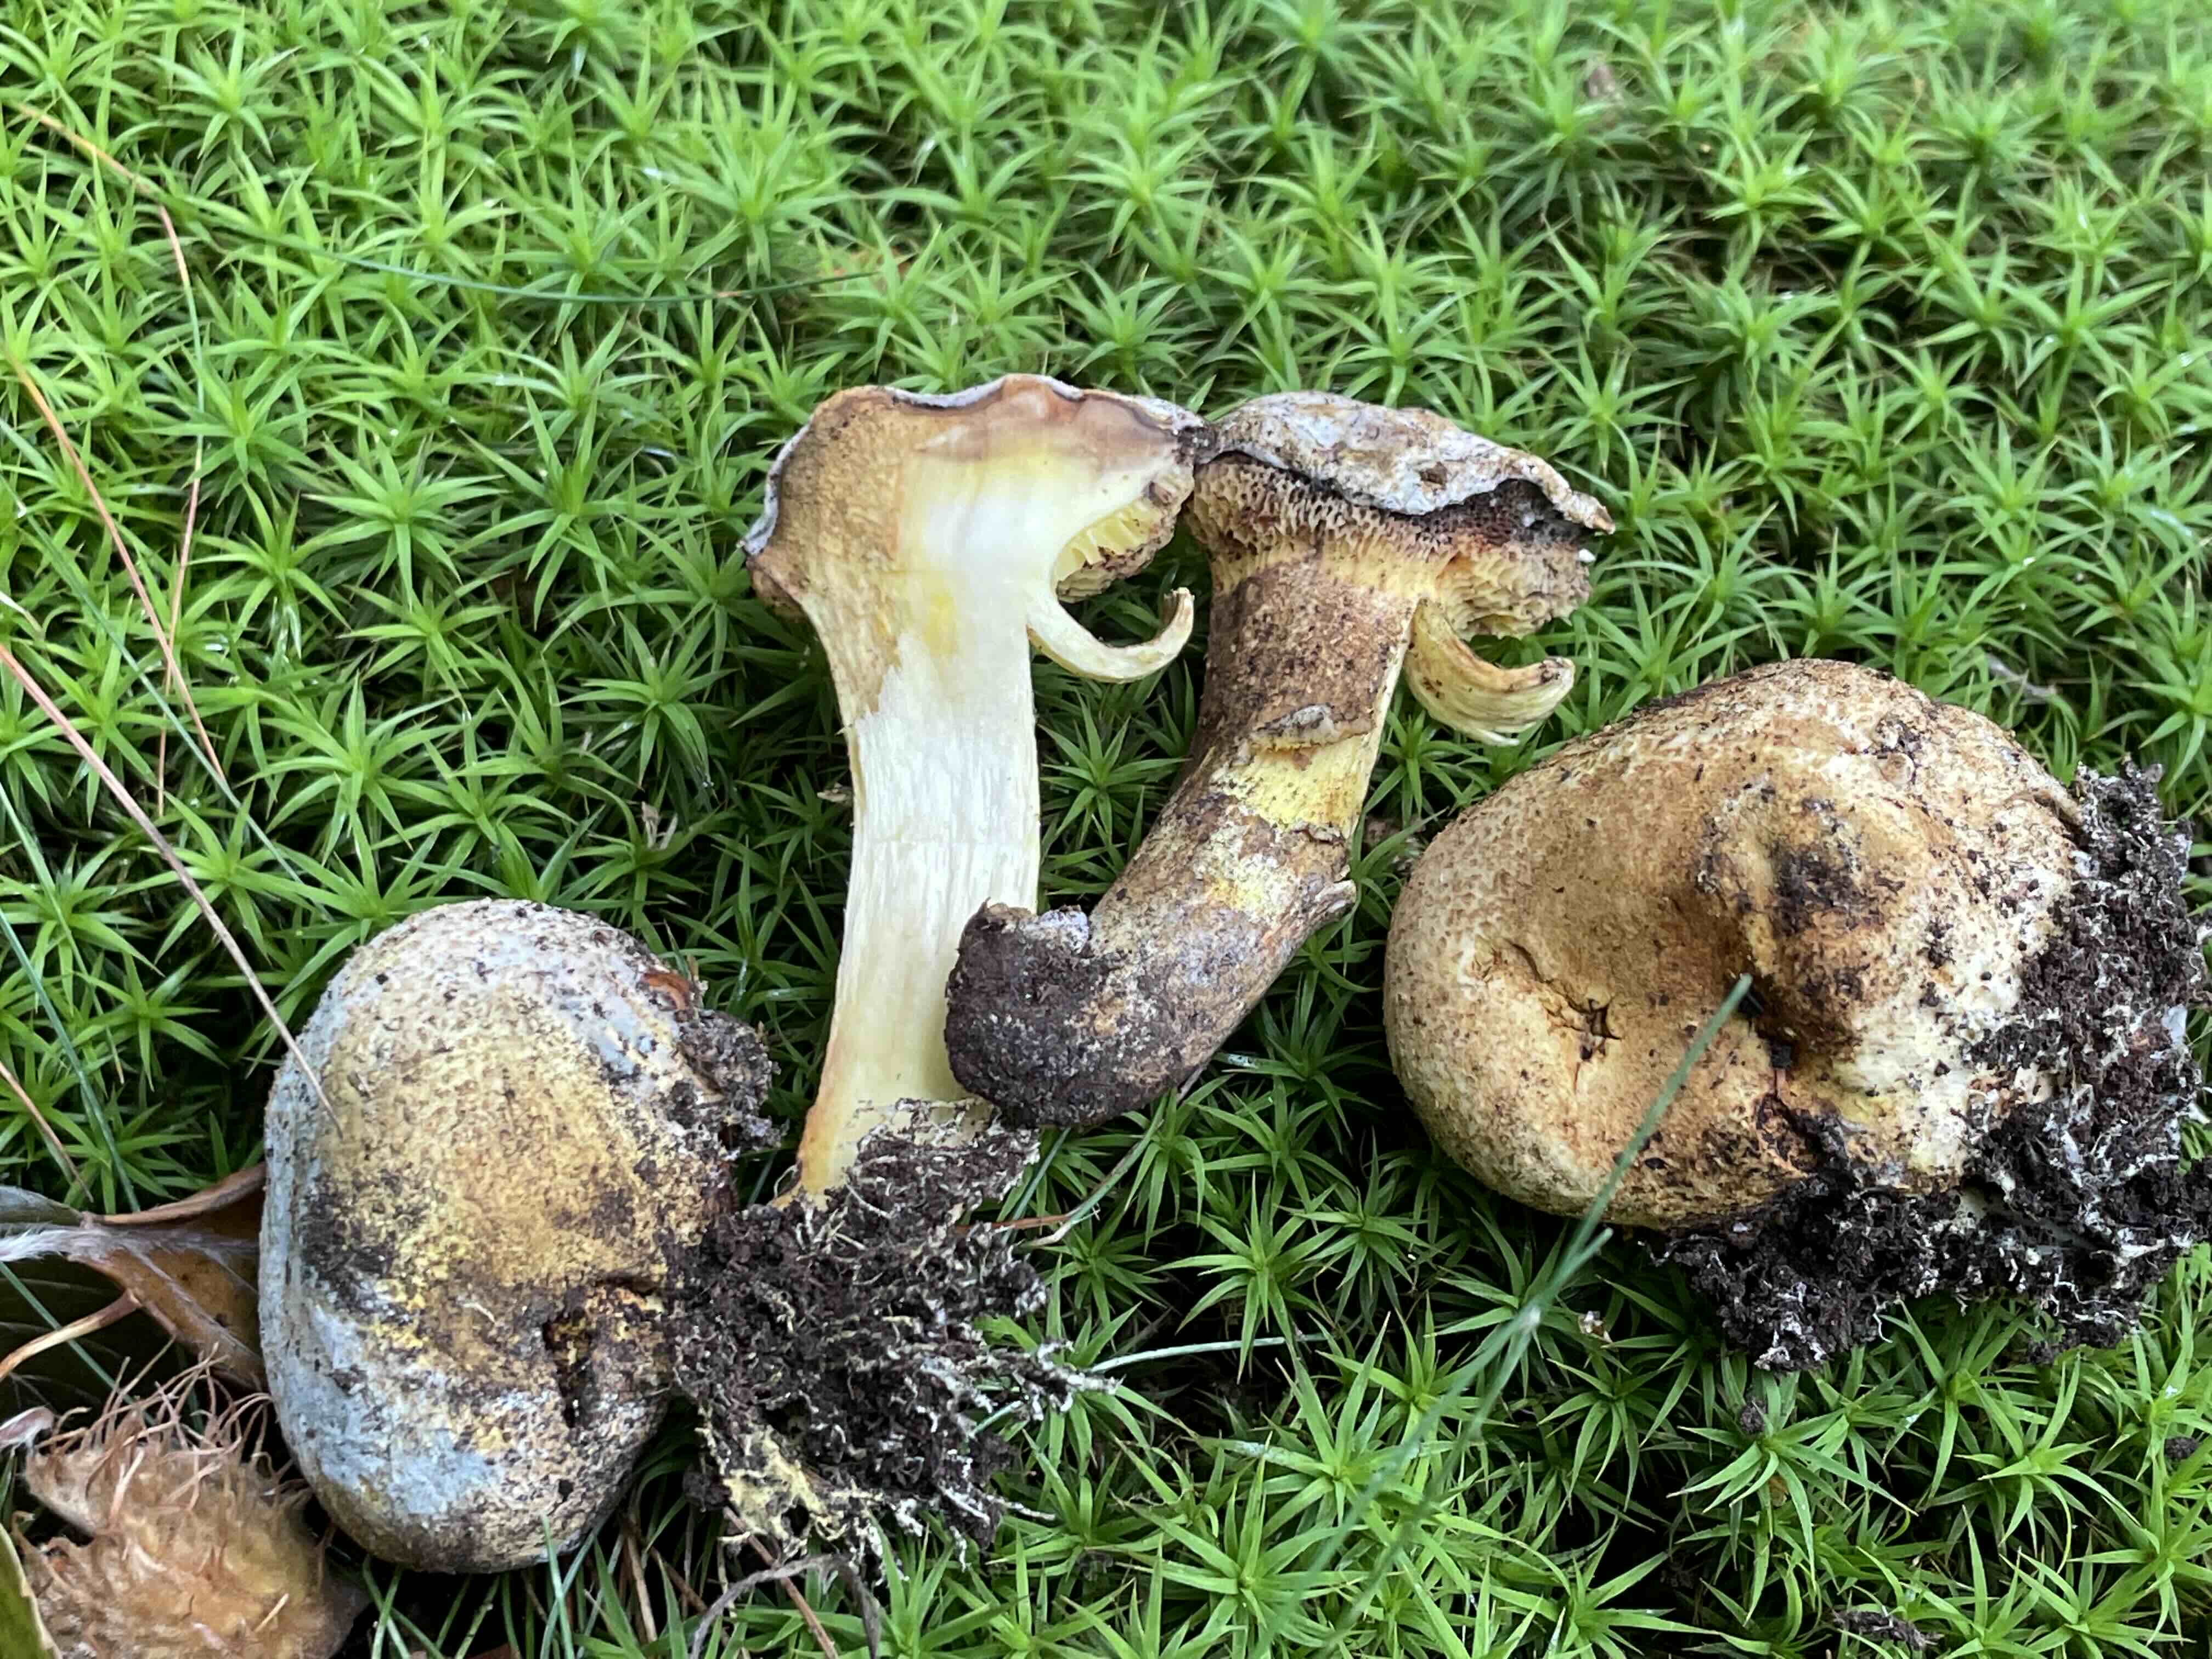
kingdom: Fungi
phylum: Basidiomycota
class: Agaricomycetes
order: Boletales
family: Boletaceae
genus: Pseudoboletus
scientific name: Pseudoboletus parasiticus
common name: snyltende rørhat
